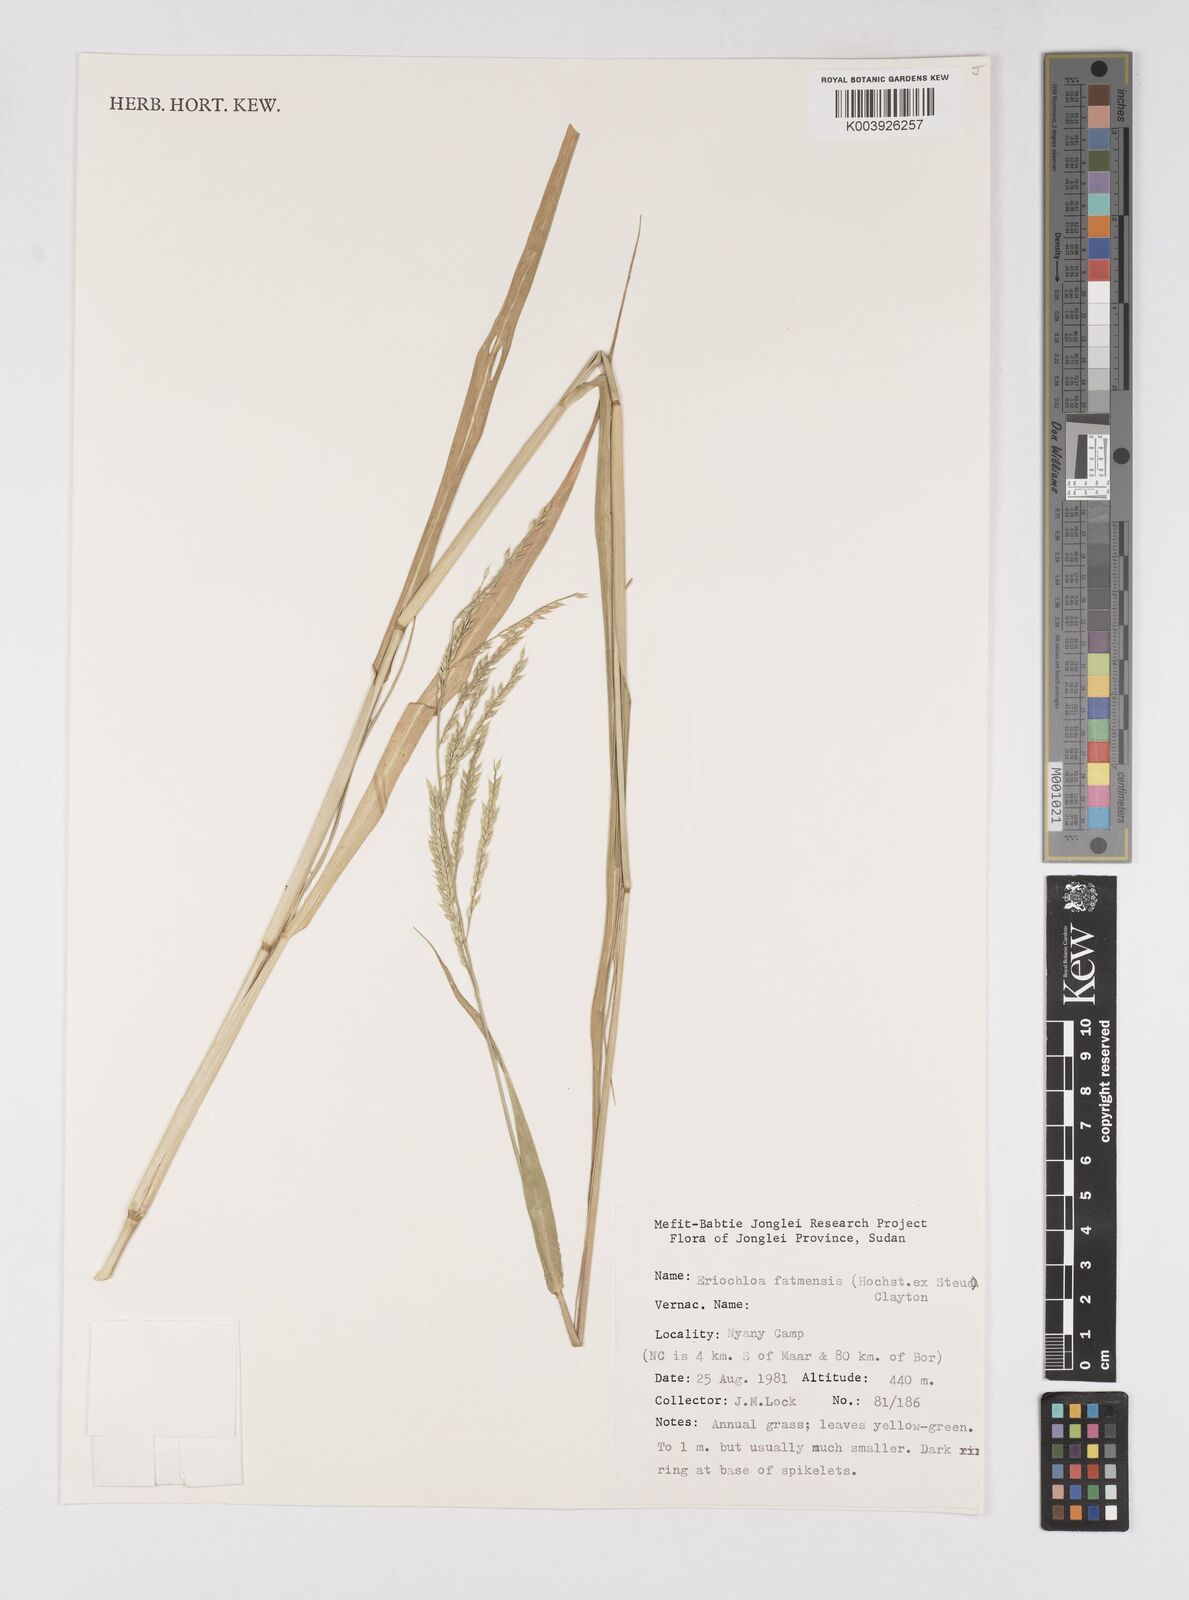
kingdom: Plantae
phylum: Tracheophyta
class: Liliopsida
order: Poales
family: Poaceae
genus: Eriochloa
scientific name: Eriochloa barbatus
